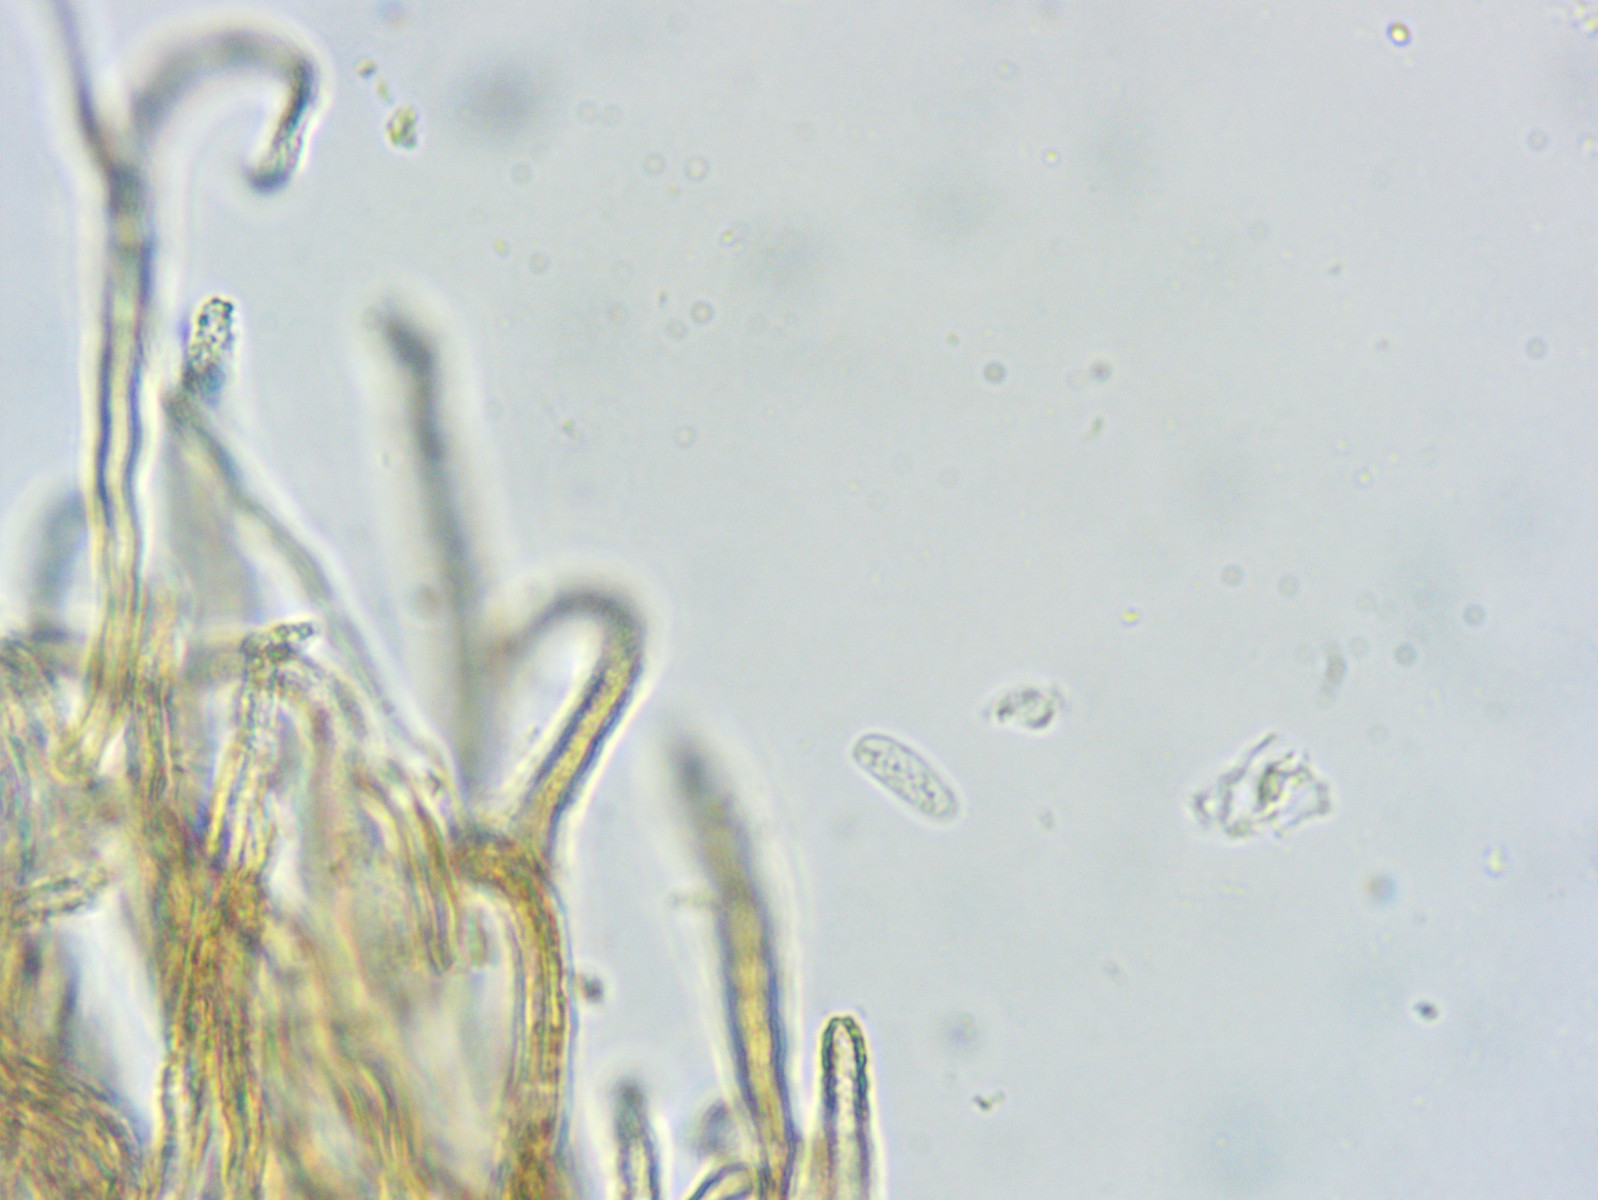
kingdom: Fungi
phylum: Basidiomycota
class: Agaricomycetes
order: Agaricales
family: Niaceae
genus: Merismodes
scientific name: Merismodes anomala
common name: almindelig læderskål
